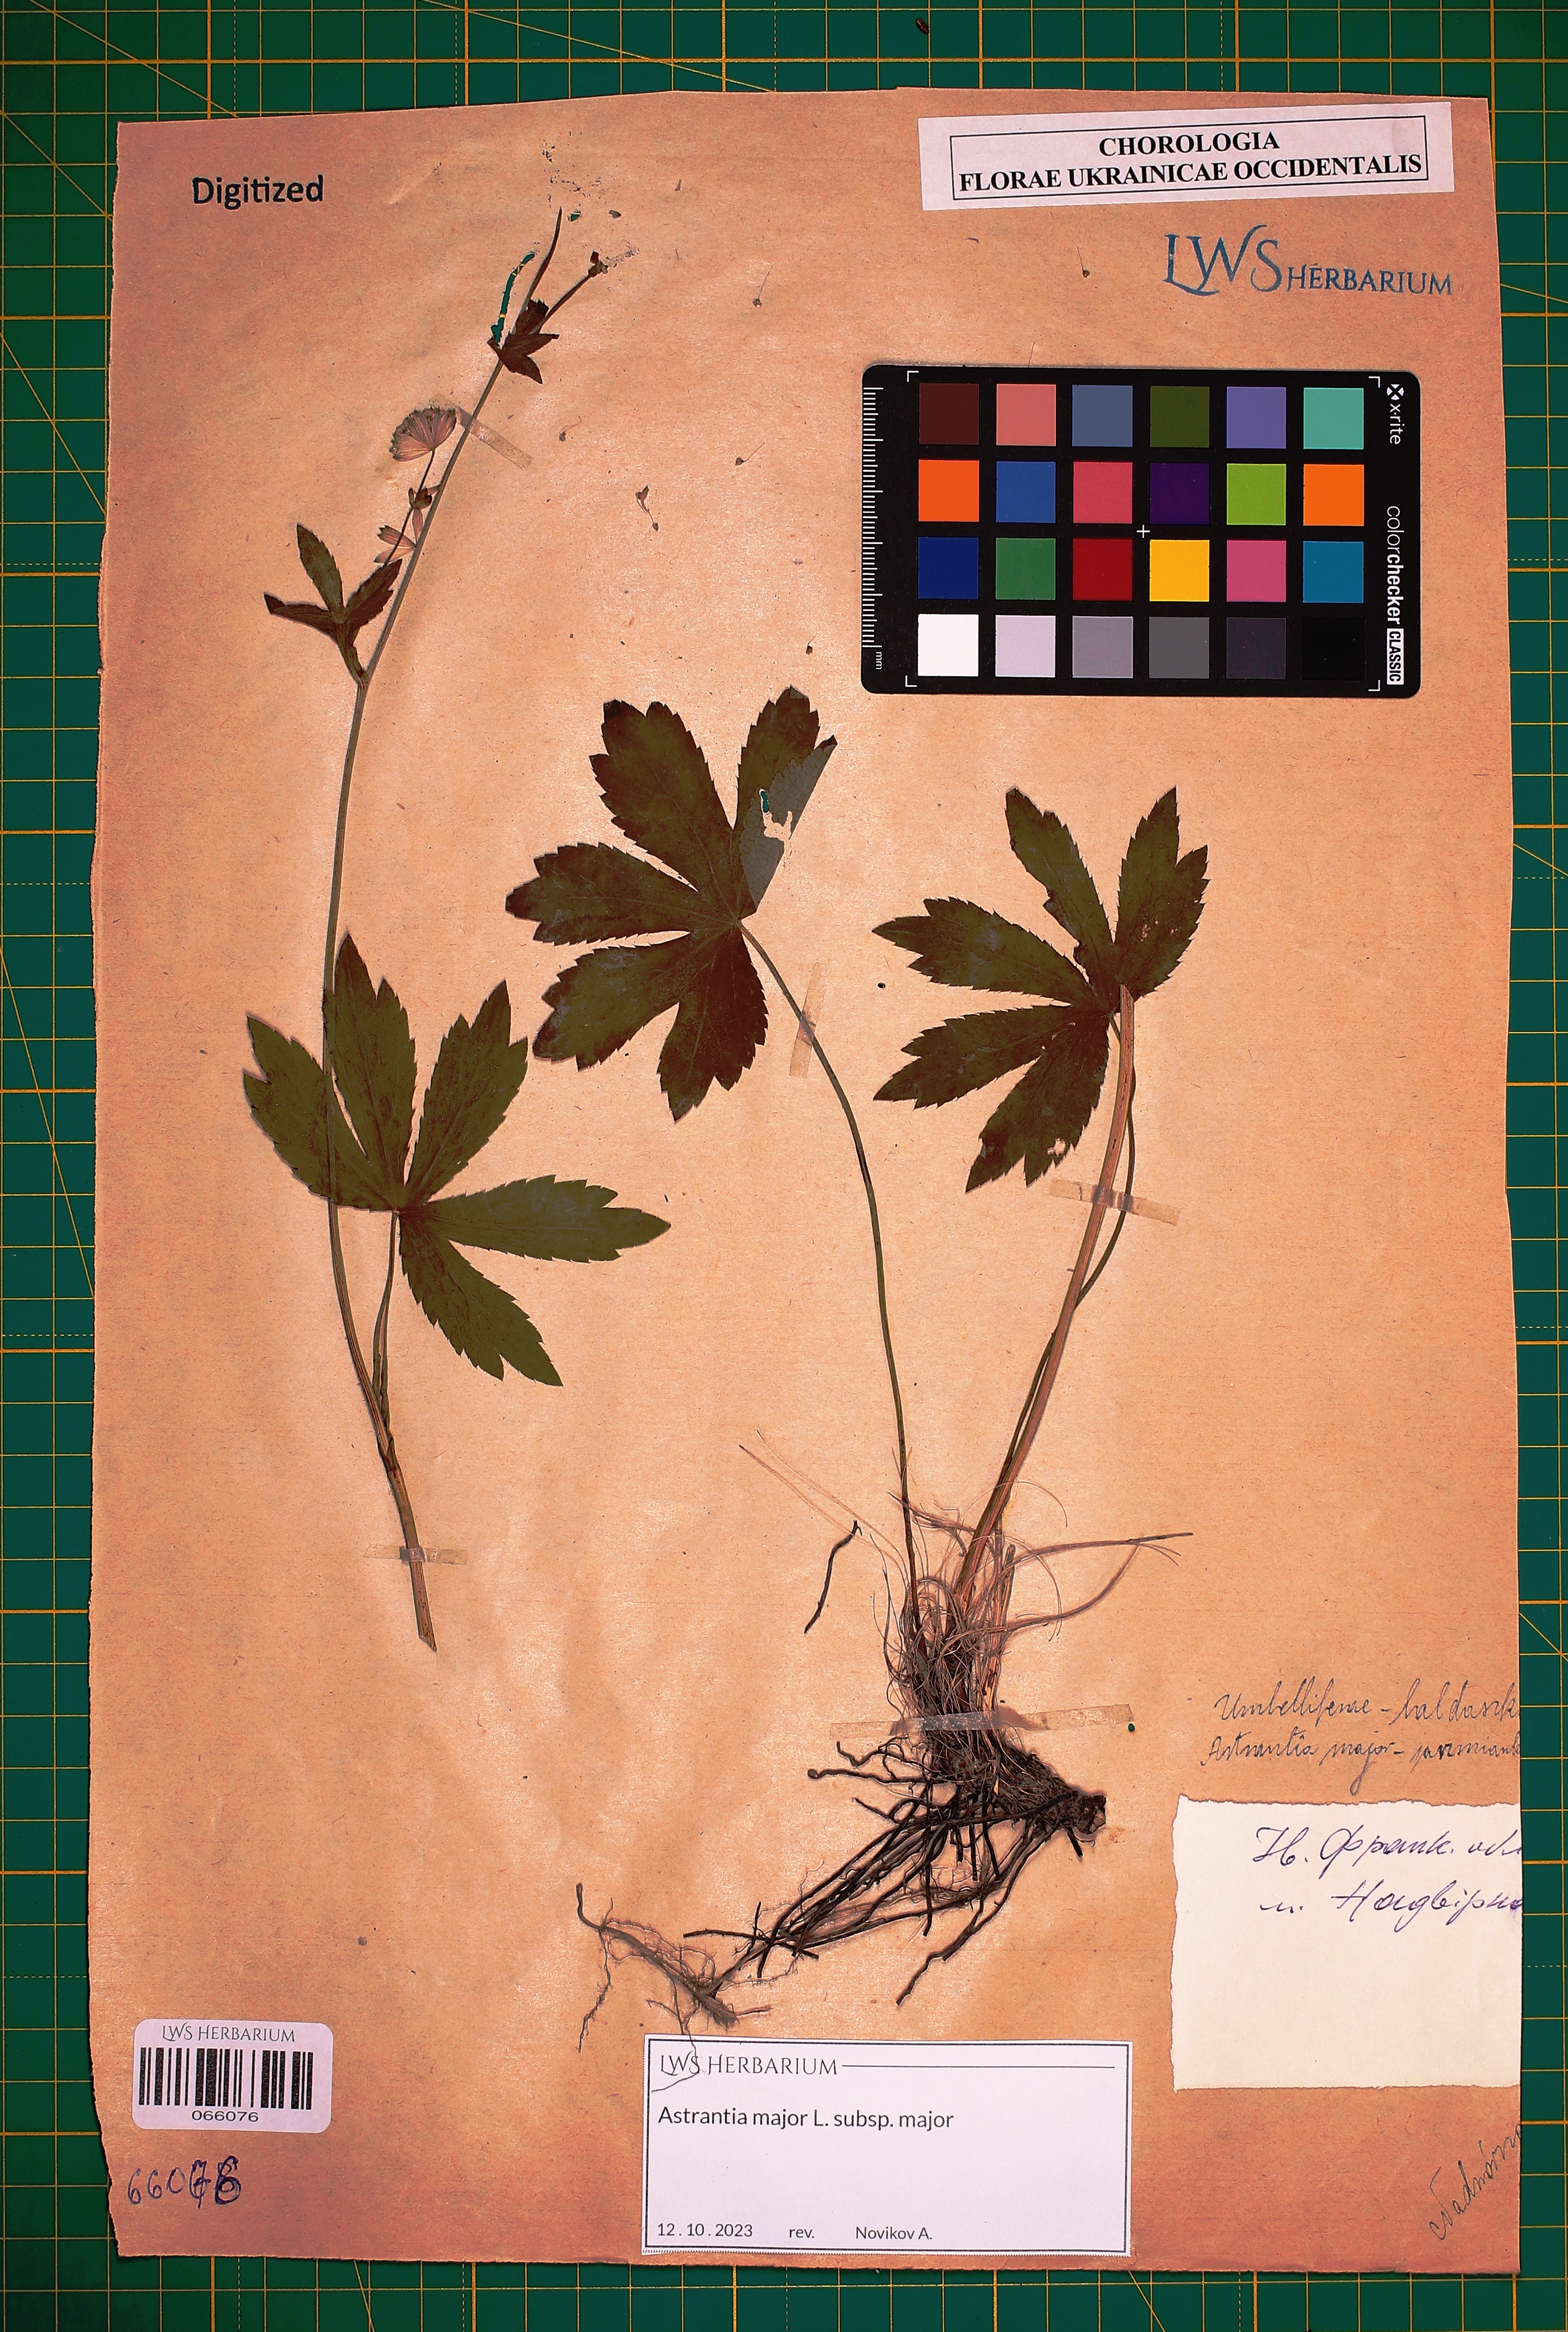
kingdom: Plantae
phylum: Tracheophyta
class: Magnoliopsida
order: Apiales
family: Apiaceae
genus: Astrantia
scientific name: Astrantia major
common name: Greater masterwort
